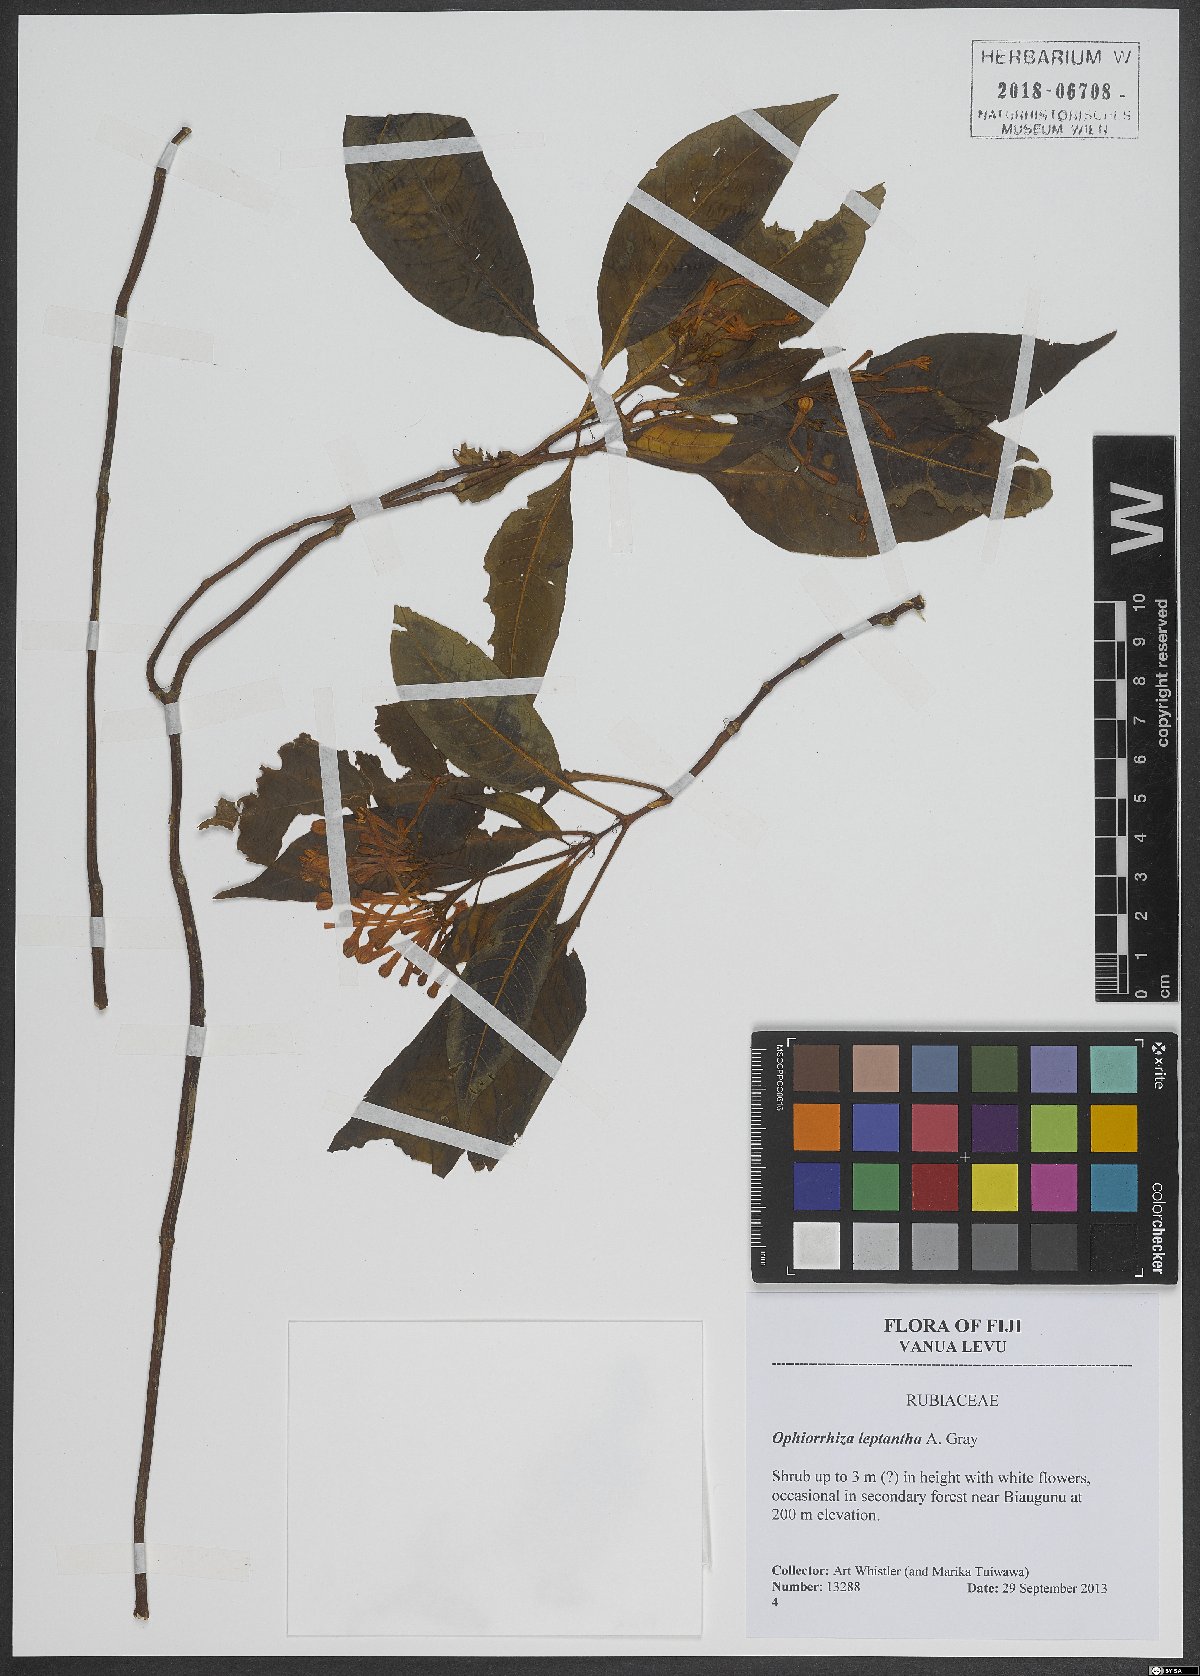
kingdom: Plantae
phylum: Tracheophyta
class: Magnoliopsida
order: Gentianales
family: Rubiaceae
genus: Ophiorrhiza
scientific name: Ophiorrhiza leptantha
